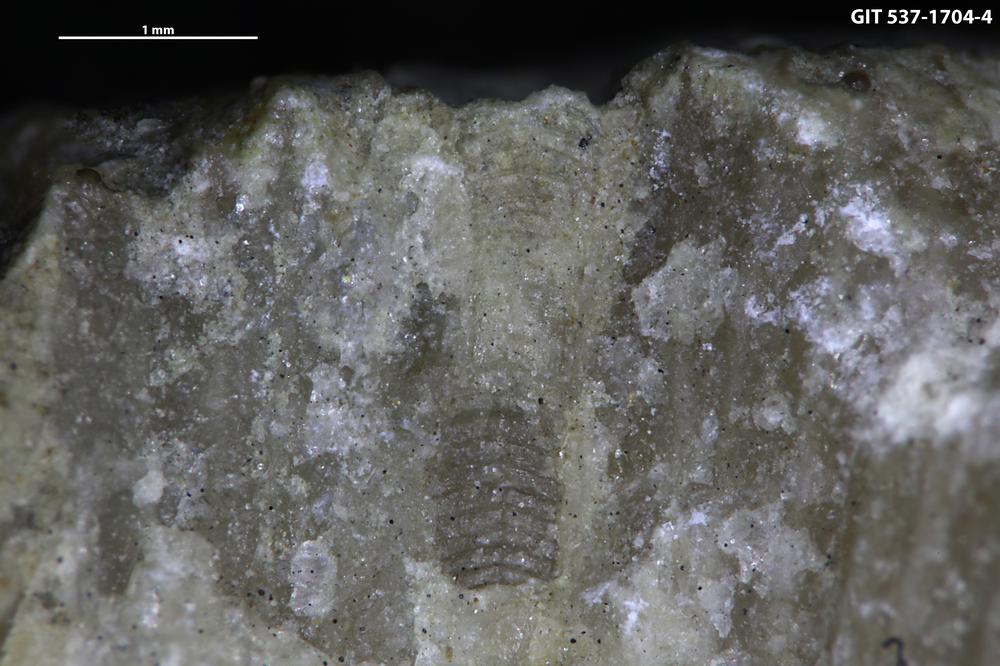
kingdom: Animalia
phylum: Cnidaria
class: Scyphozoa
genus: Climacoconus
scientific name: Climacoconus
